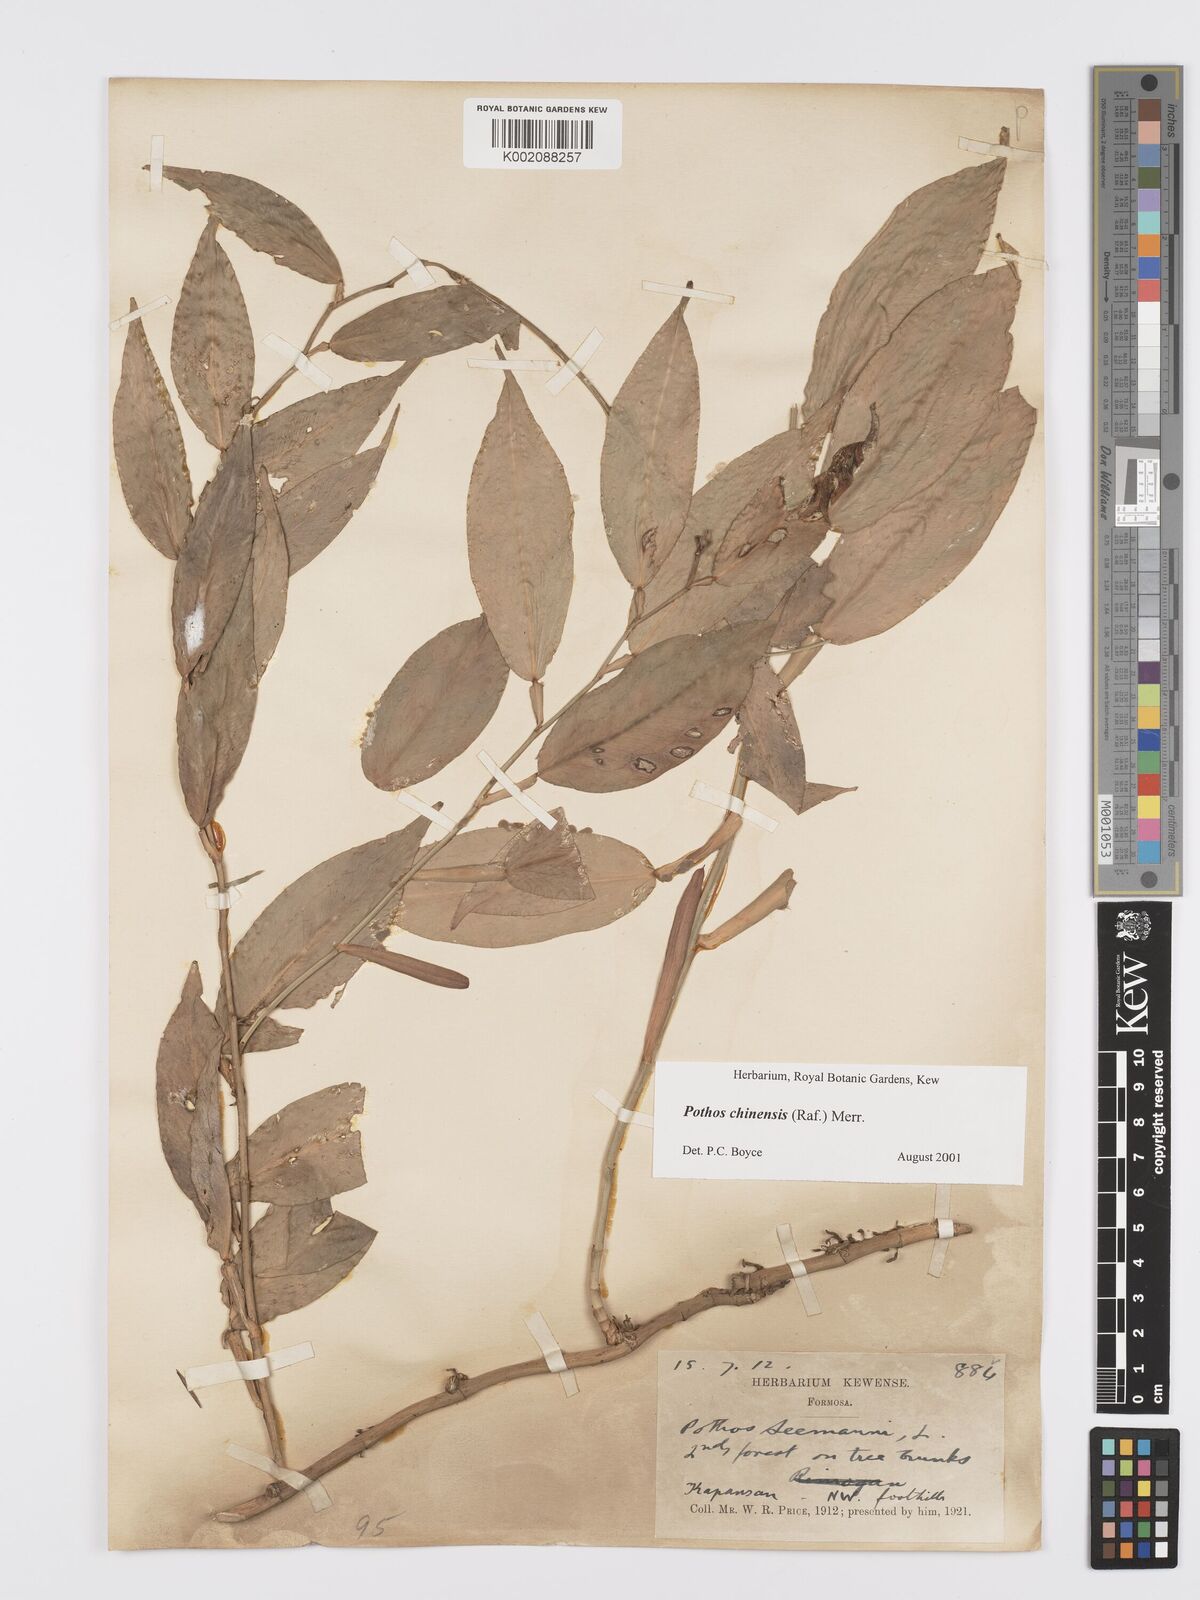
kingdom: Plantae
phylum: Tracheophyta
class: Liliopsida
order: Alismatales
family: Araceae
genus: Pothos
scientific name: Pothos chinensis
